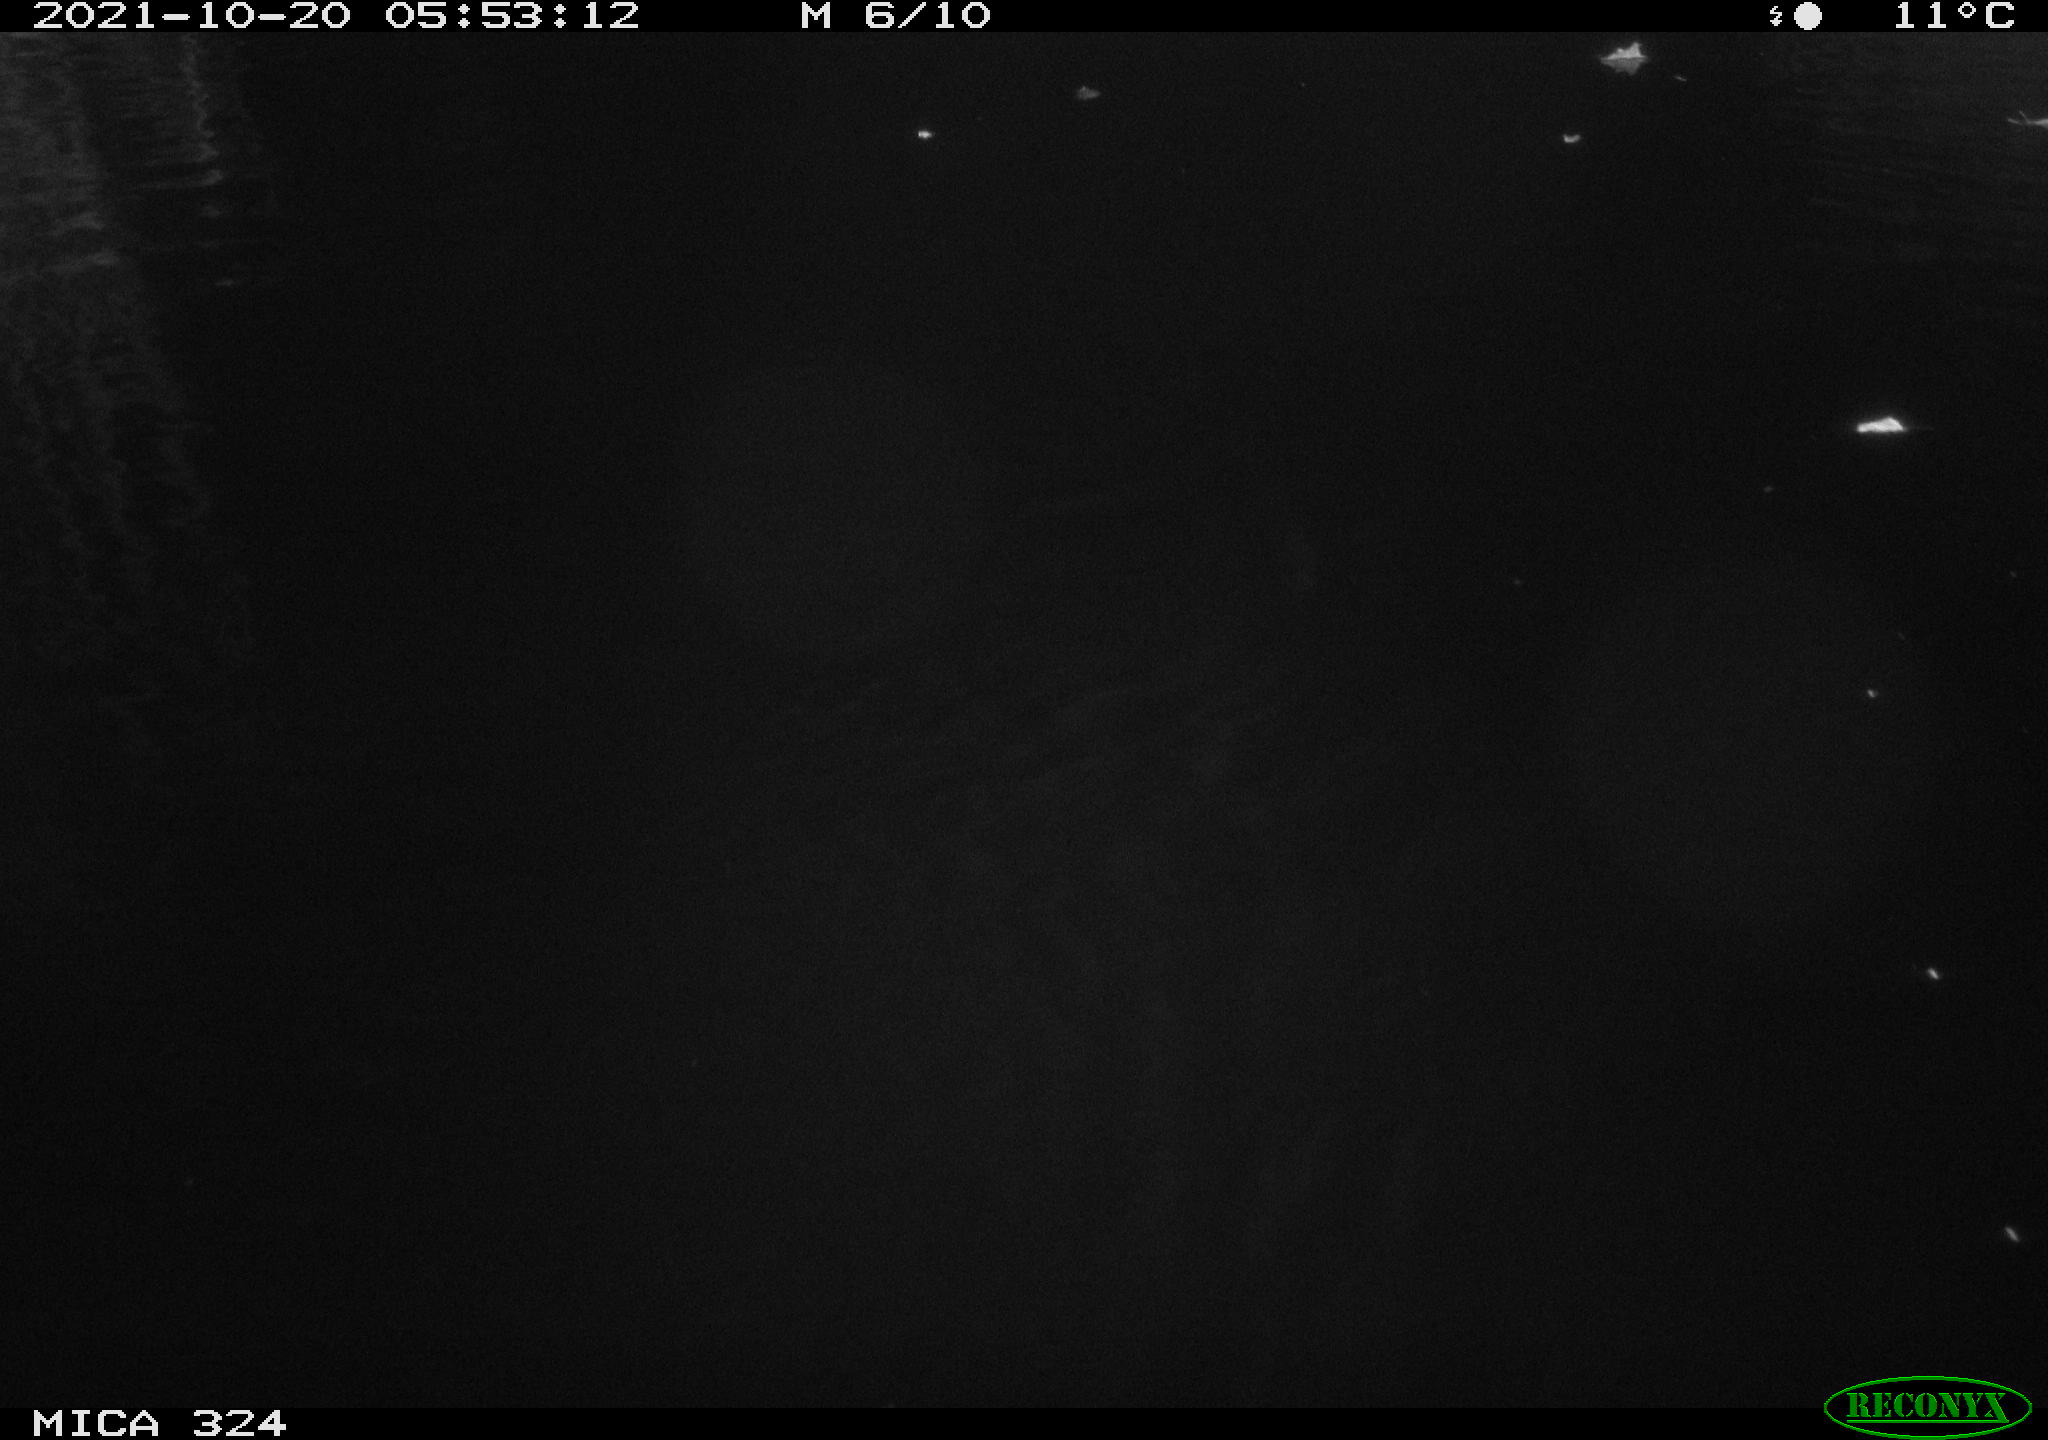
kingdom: Animalia
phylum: Chordata
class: Mammalia
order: Rodentia
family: Cricetidae
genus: Ondatra
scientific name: Ondatra zibethicus
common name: Muskrat
